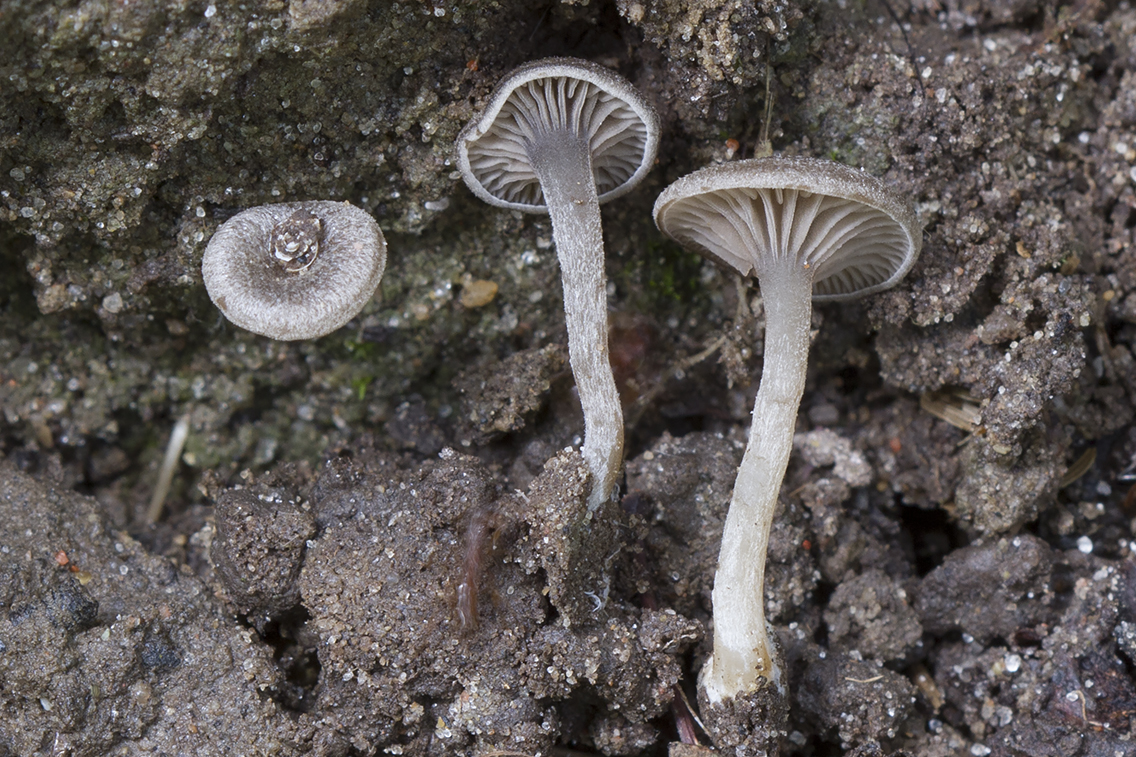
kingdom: Fungi
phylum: Basidiomycota
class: Agaricomycetes
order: Agaricales
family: Entolomataceae
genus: Entoloma
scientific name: Entoloma undatum
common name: bæltet rødblad
